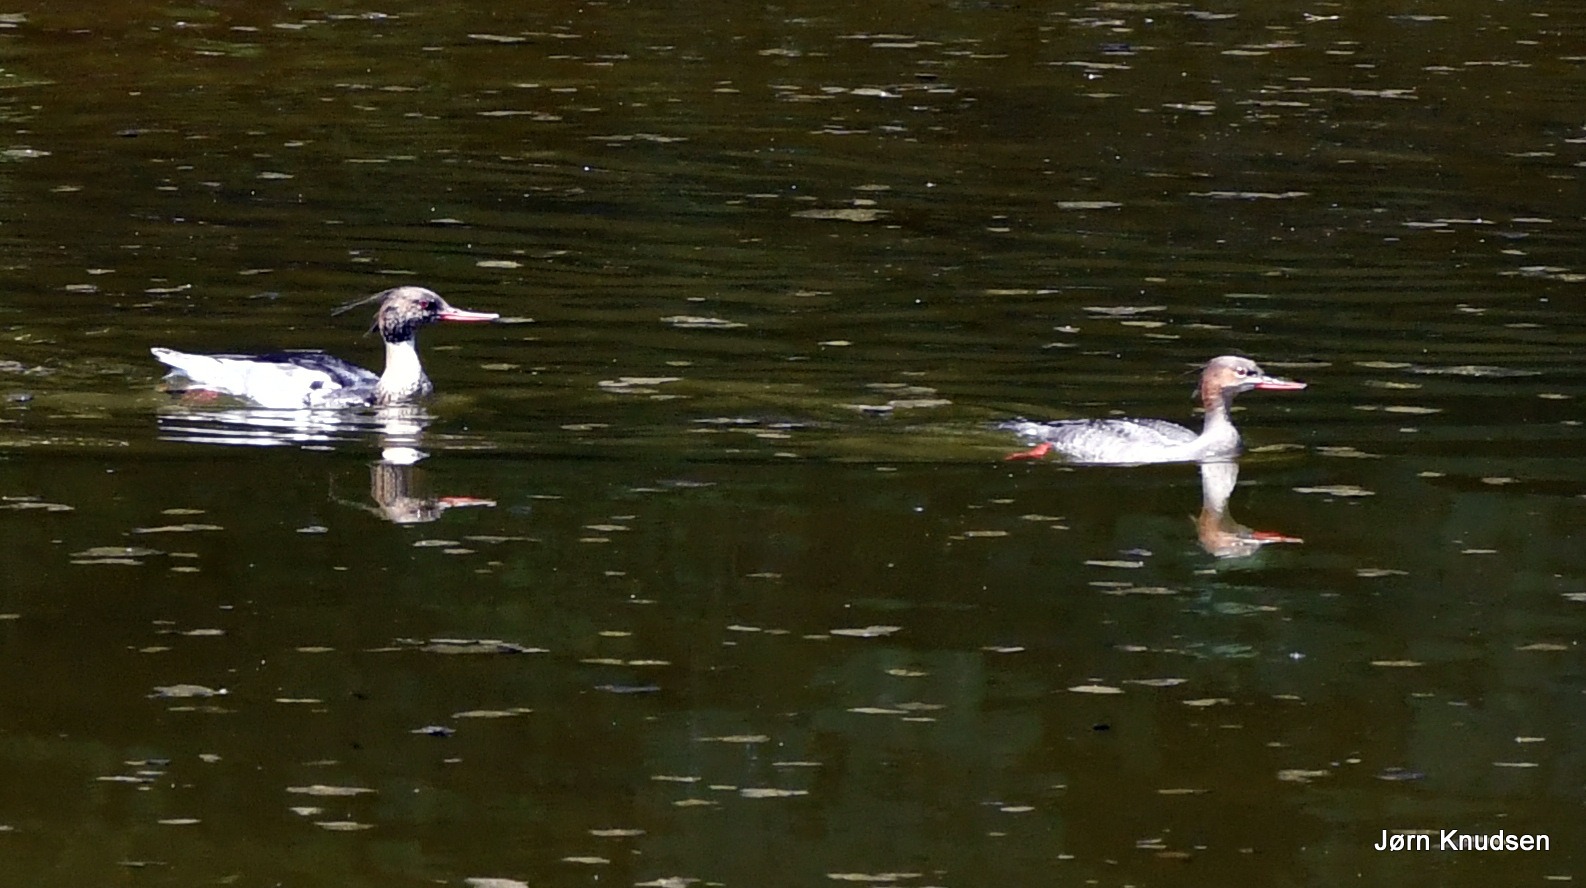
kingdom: Animalia
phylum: Chordata
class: Aves
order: Anseriformes
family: Anatidae
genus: Mergus
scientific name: Mergus serrator
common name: Toppet skallesluger
